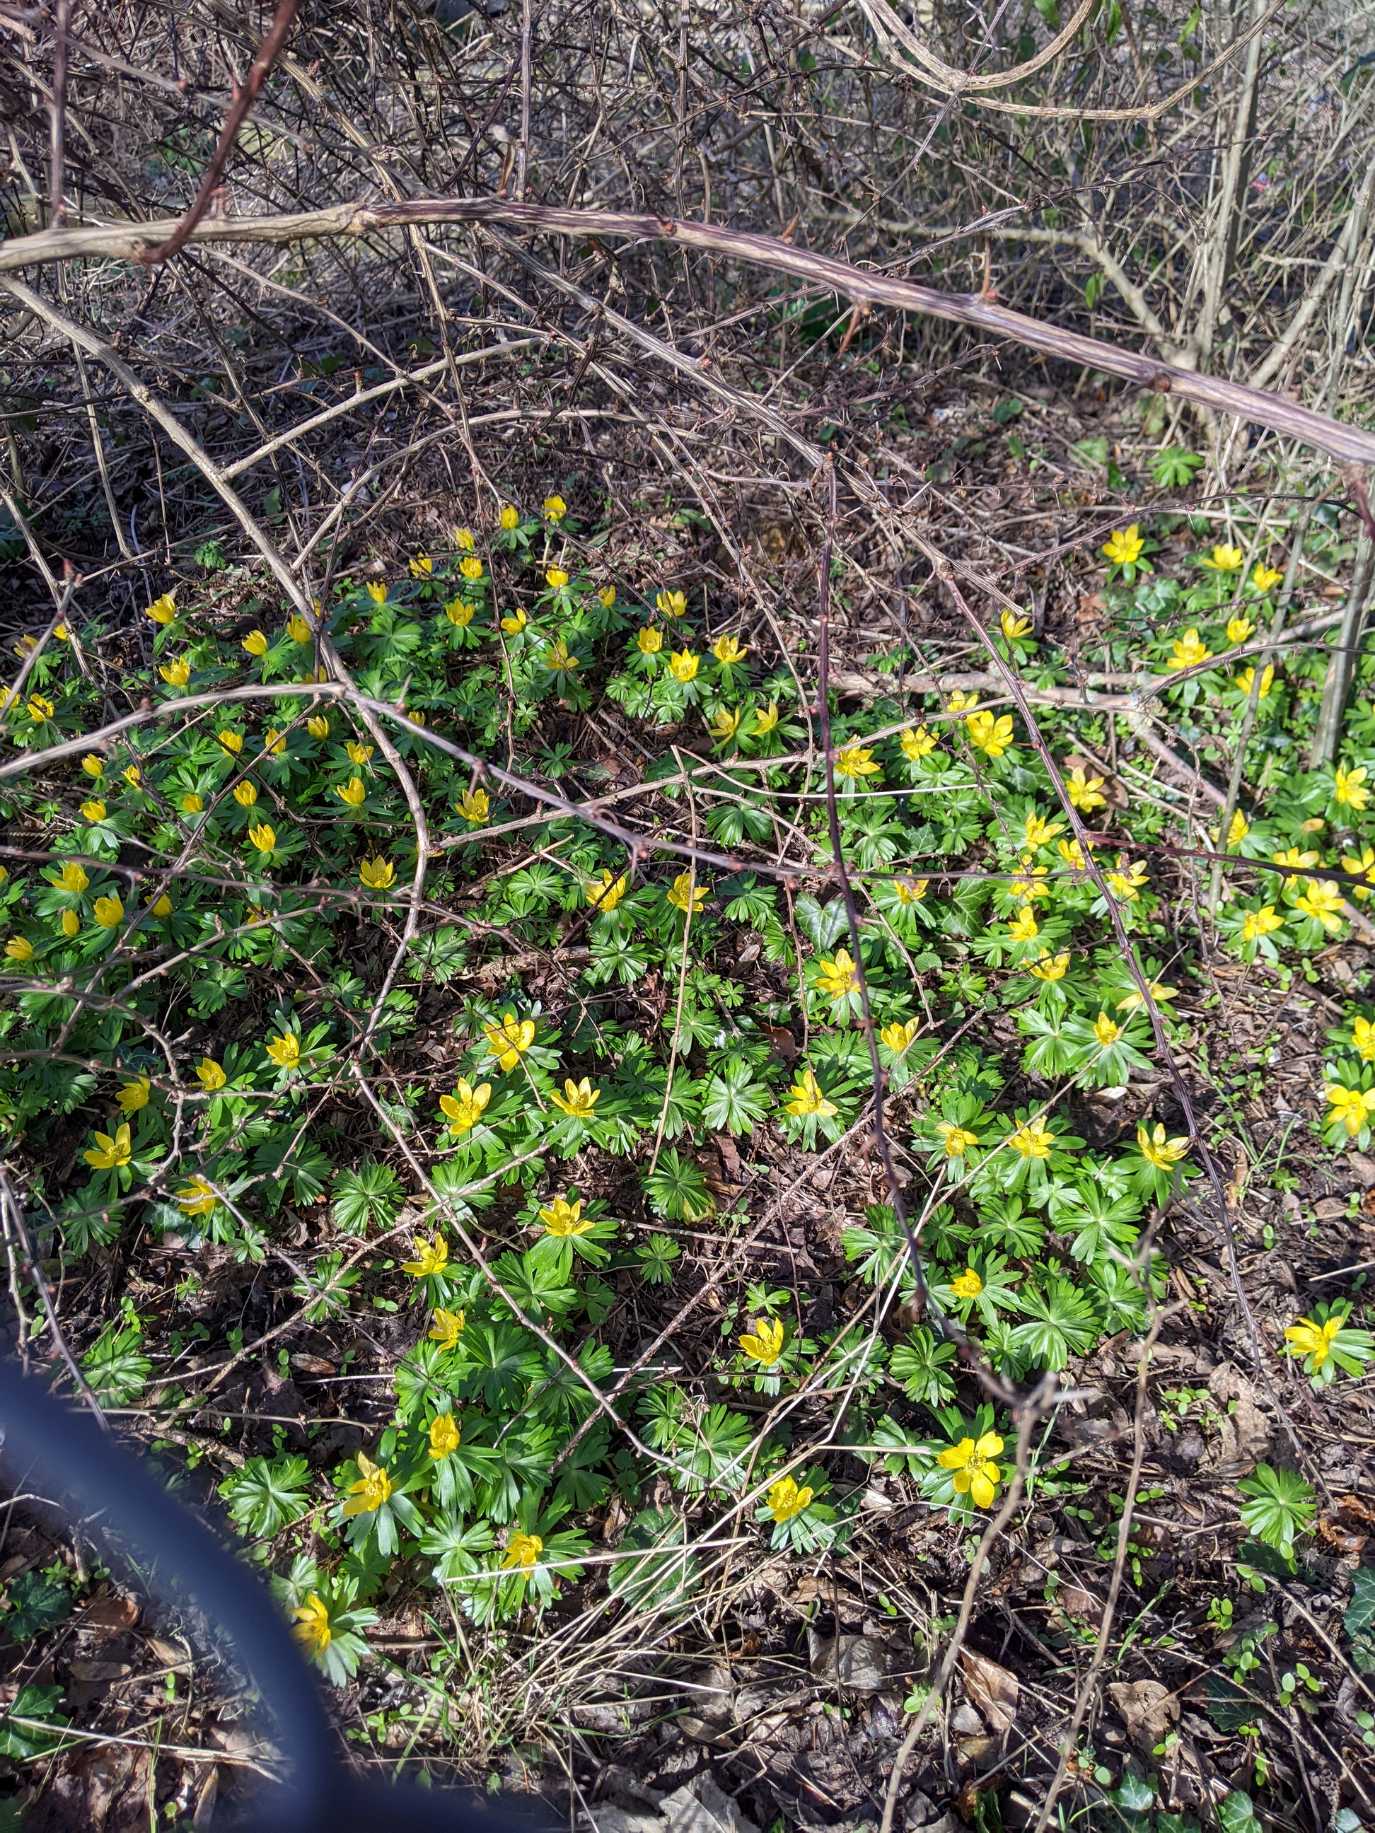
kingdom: Plantae
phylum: Tracheophyta
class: Magnoliopsida
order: Ranunculales
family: Ranunculaceae
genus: Eranthis
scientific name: Eranthis hyemalis
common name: Erantis
